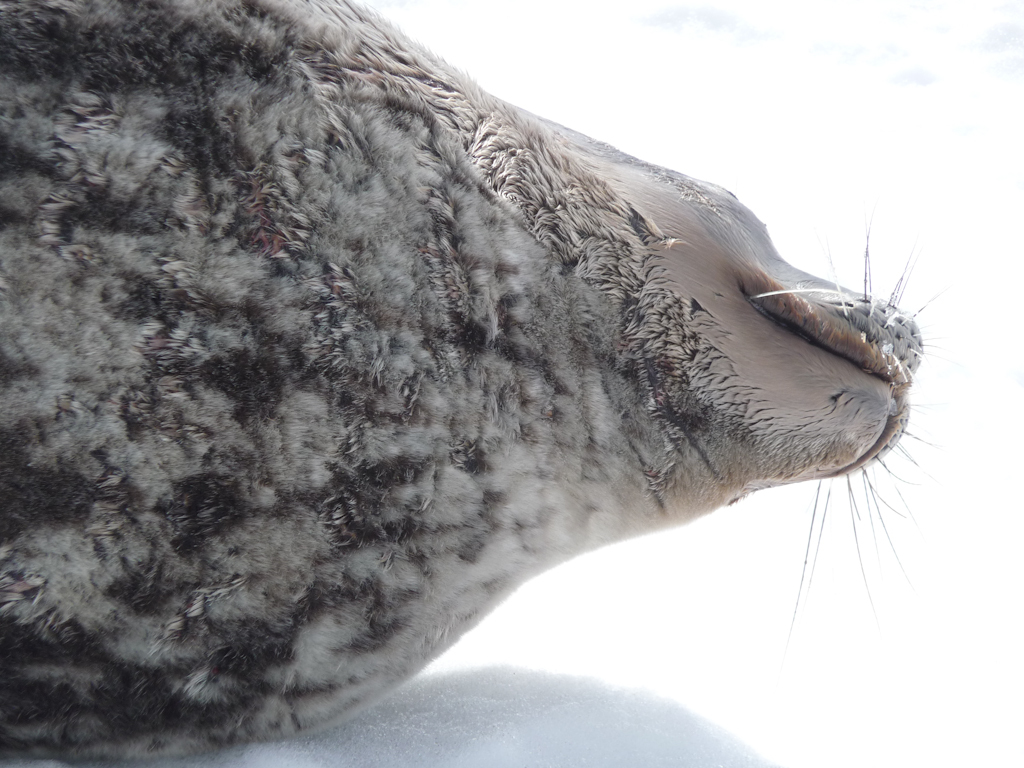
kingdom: Animalia
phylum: Chordata
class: Mammalia
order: Carnivora
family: Phocidae
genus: Leptonychotes
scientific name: Leptonychotes weddellii
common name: Weddell Seal
